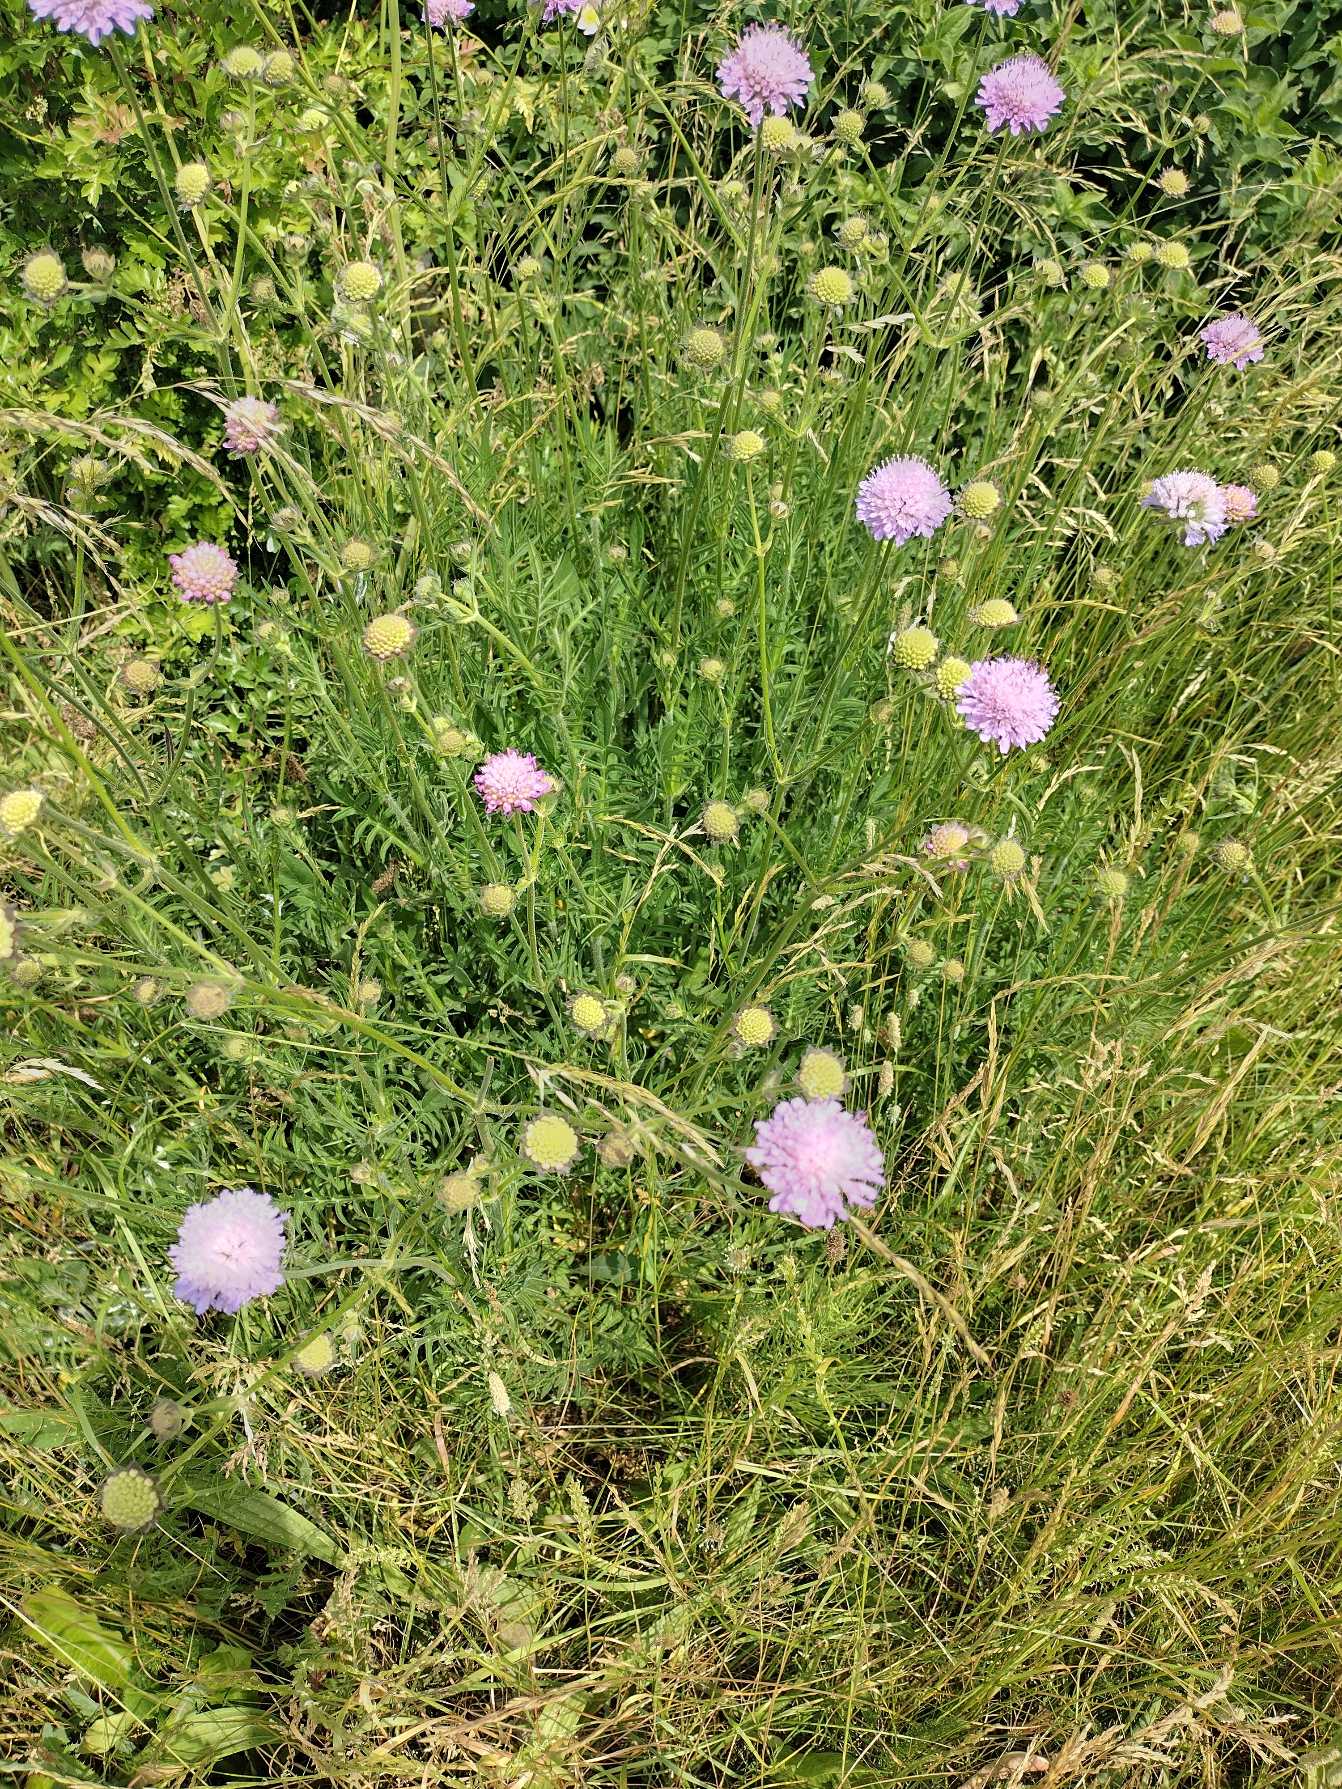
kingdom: Plantae
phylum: Tracheophyta
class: Magnoliopsida
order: Dipsacales
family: Caprifoliaceae
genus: Knautia
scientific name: Knautia arvensis
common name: Blåhat
